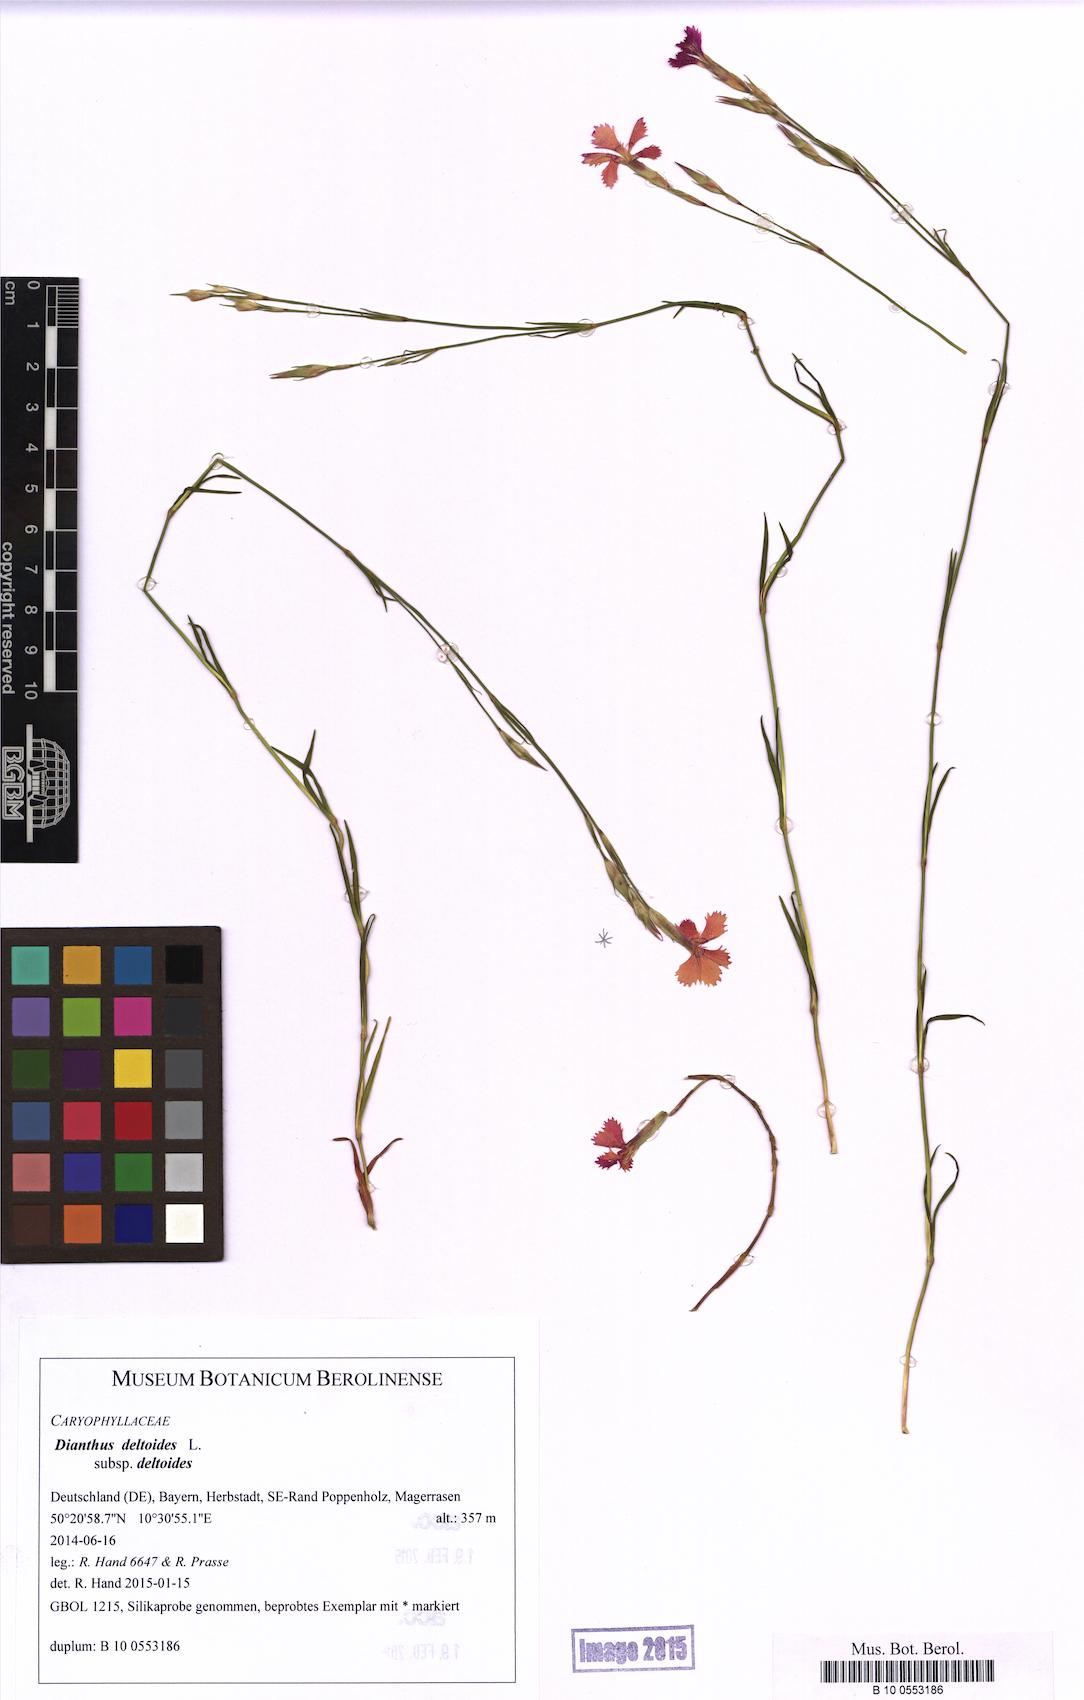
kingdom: Plantae
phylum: Tracheophyta
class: Magnoliopsida
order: Caryophyllales
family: Caryophyllaceae
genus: Dianthus
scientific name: Dianthus deltoides
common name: Maiden pink
